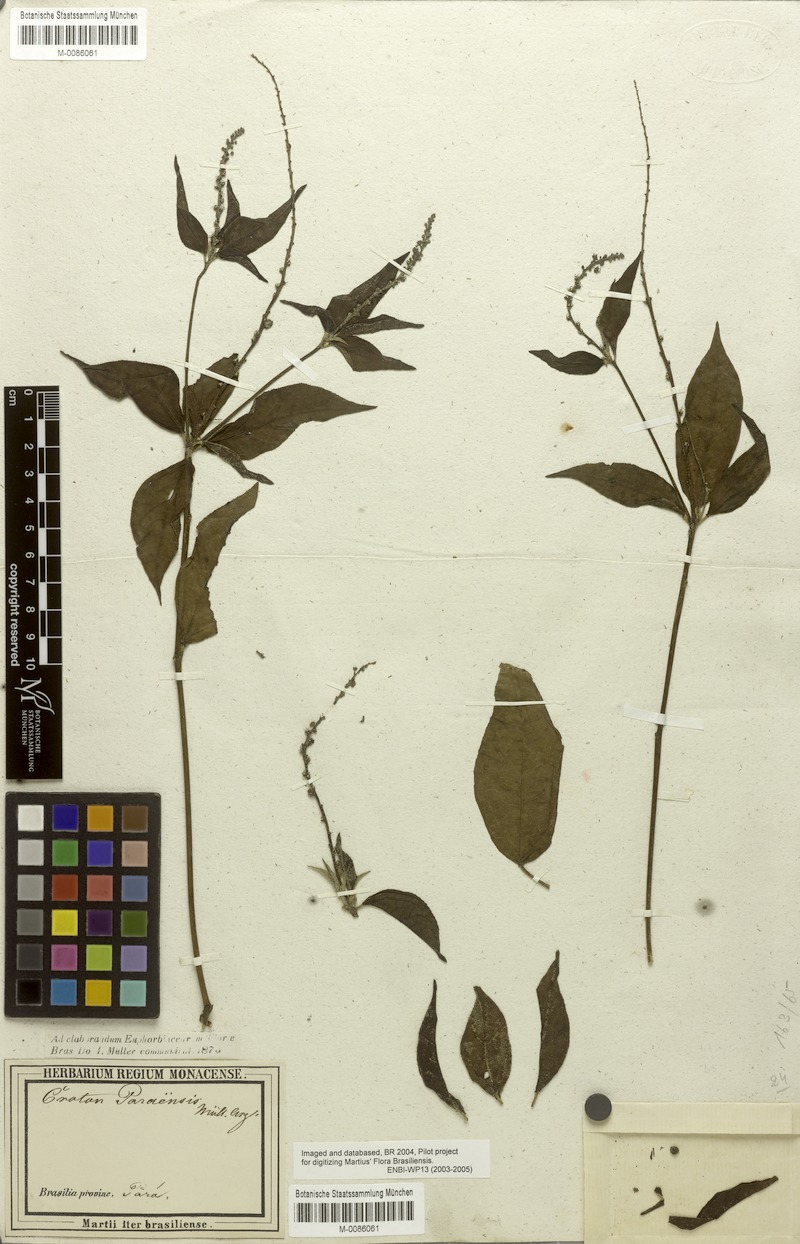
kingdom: Plantae
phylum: Tracheophyta
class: Magnoliopsida
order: Malpighiales
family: Euphorbiaceae
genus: Croton
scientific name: Croton paraensis
